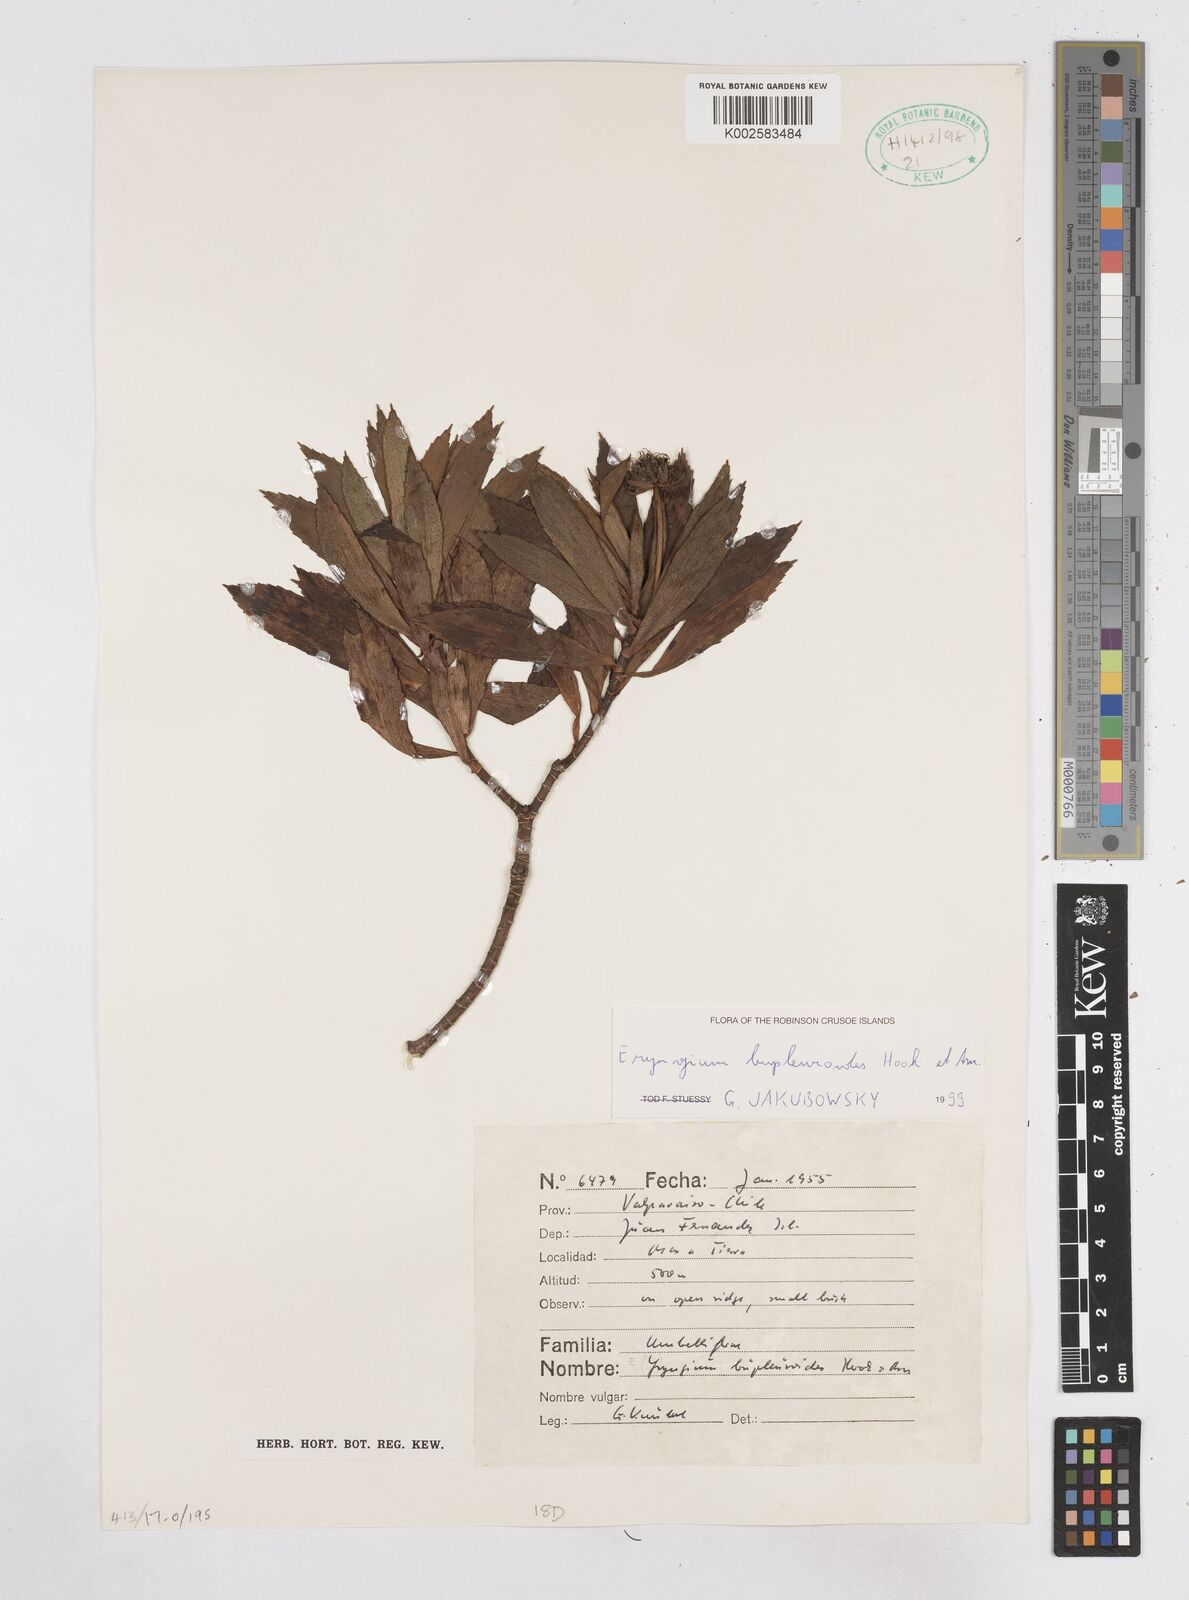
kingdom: Plantae
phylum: Tracheophyta
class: Magnoliopsida
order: Apiales
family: Apiaceae
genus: Eryngium
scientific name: Eryngium bupleuroides
